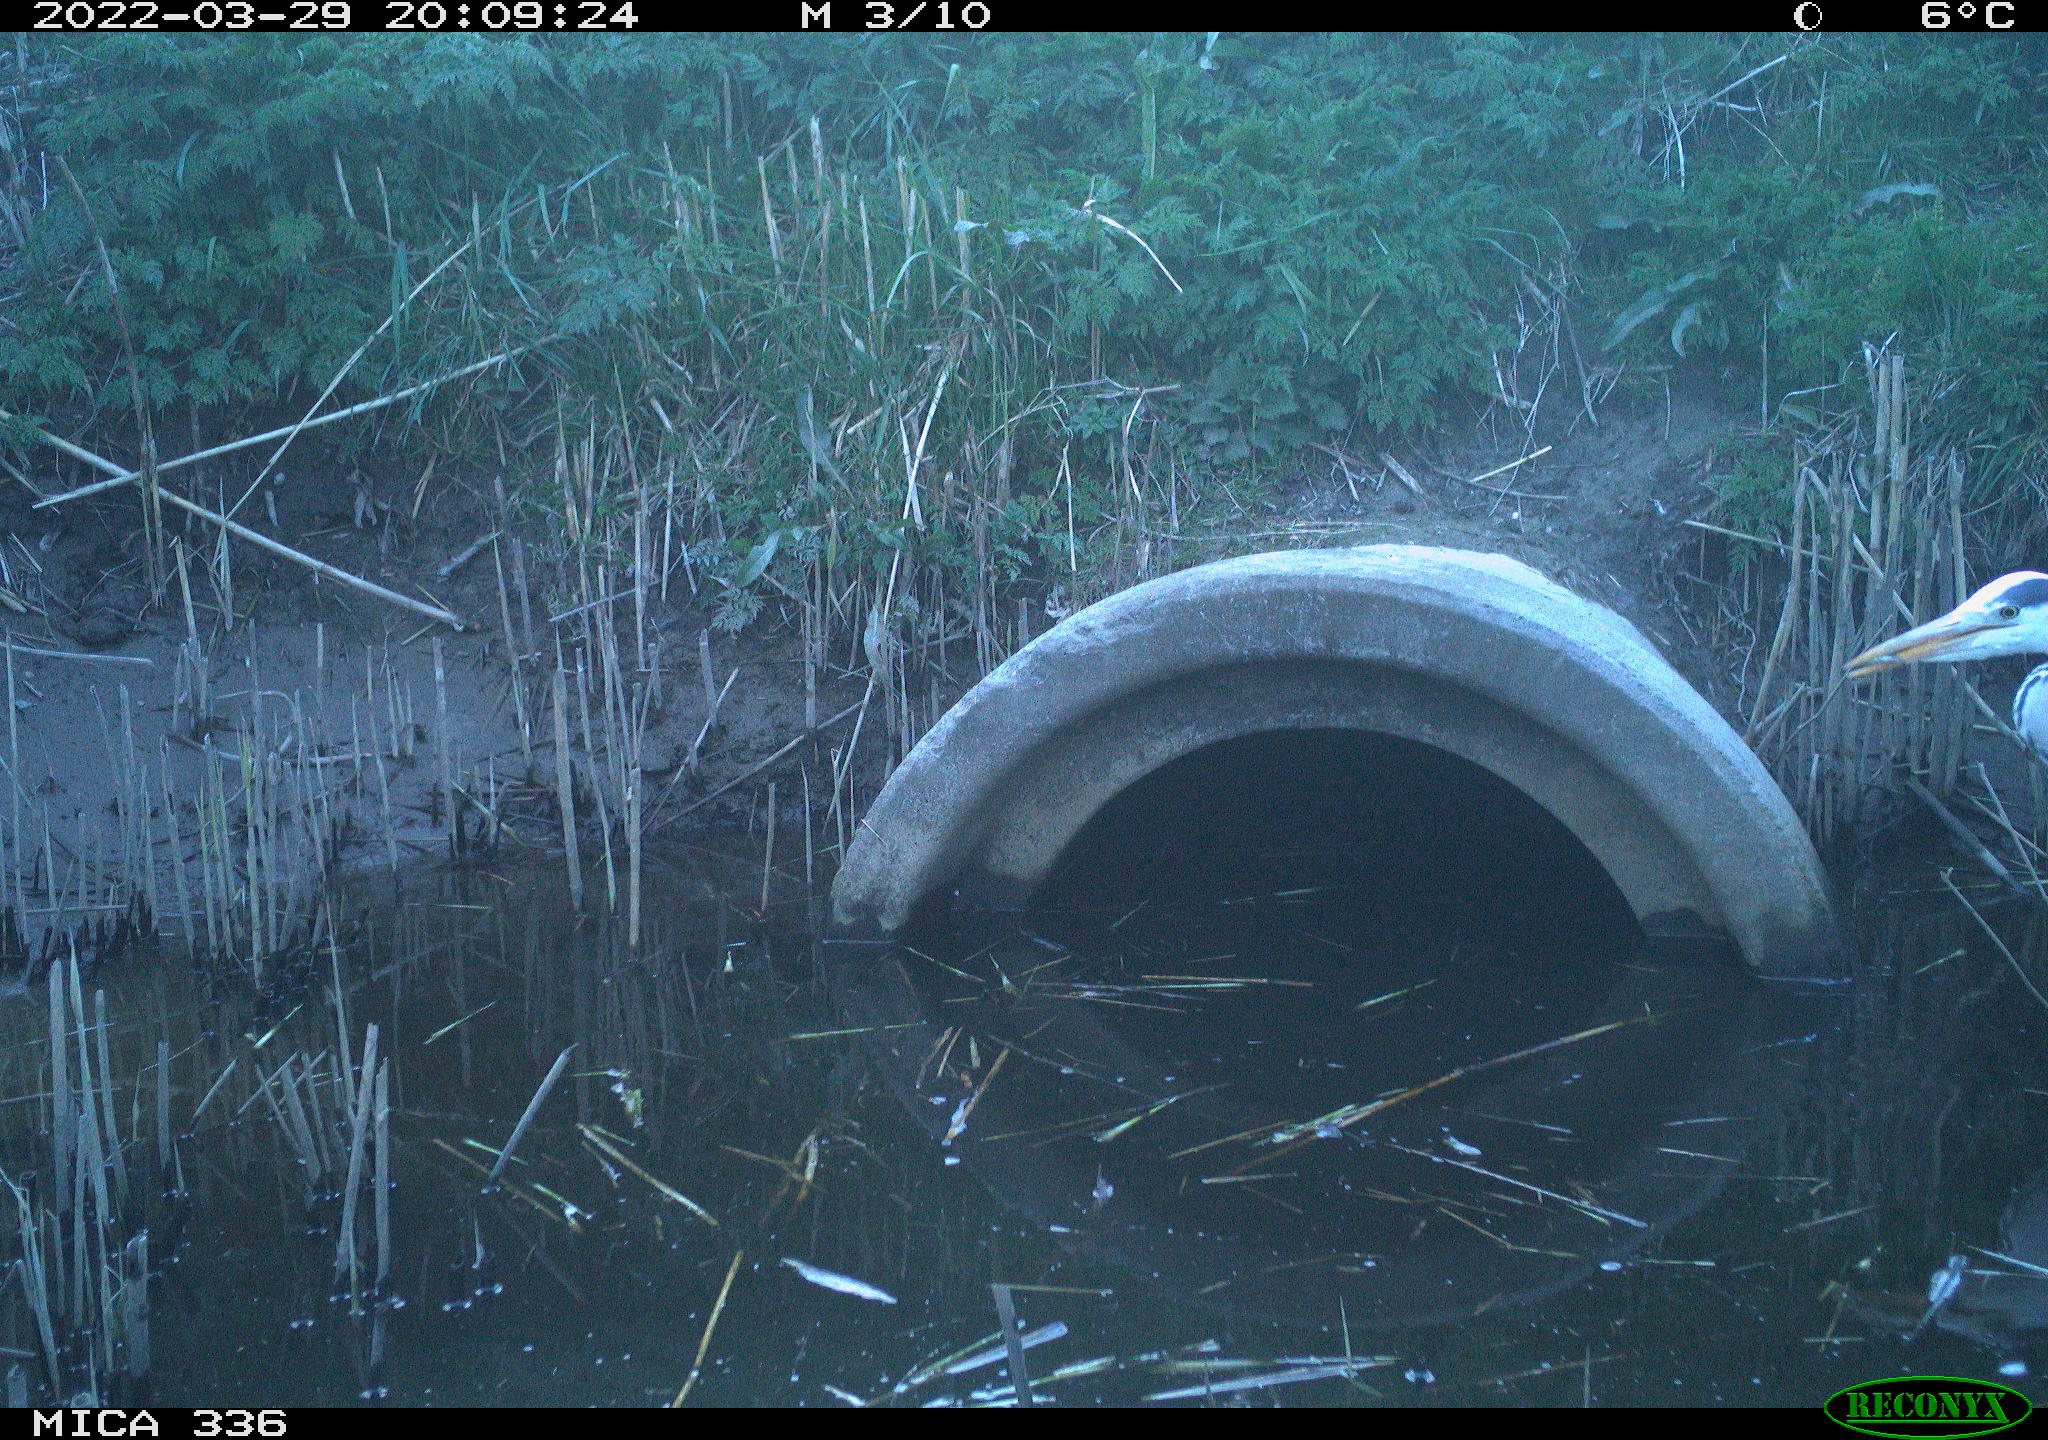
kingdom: Animalia
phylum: Chordata
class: Aves
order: Pelecaniformes
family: Ardeidae
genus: Ardea
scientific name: Ardea cinerea
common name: Grey heron
